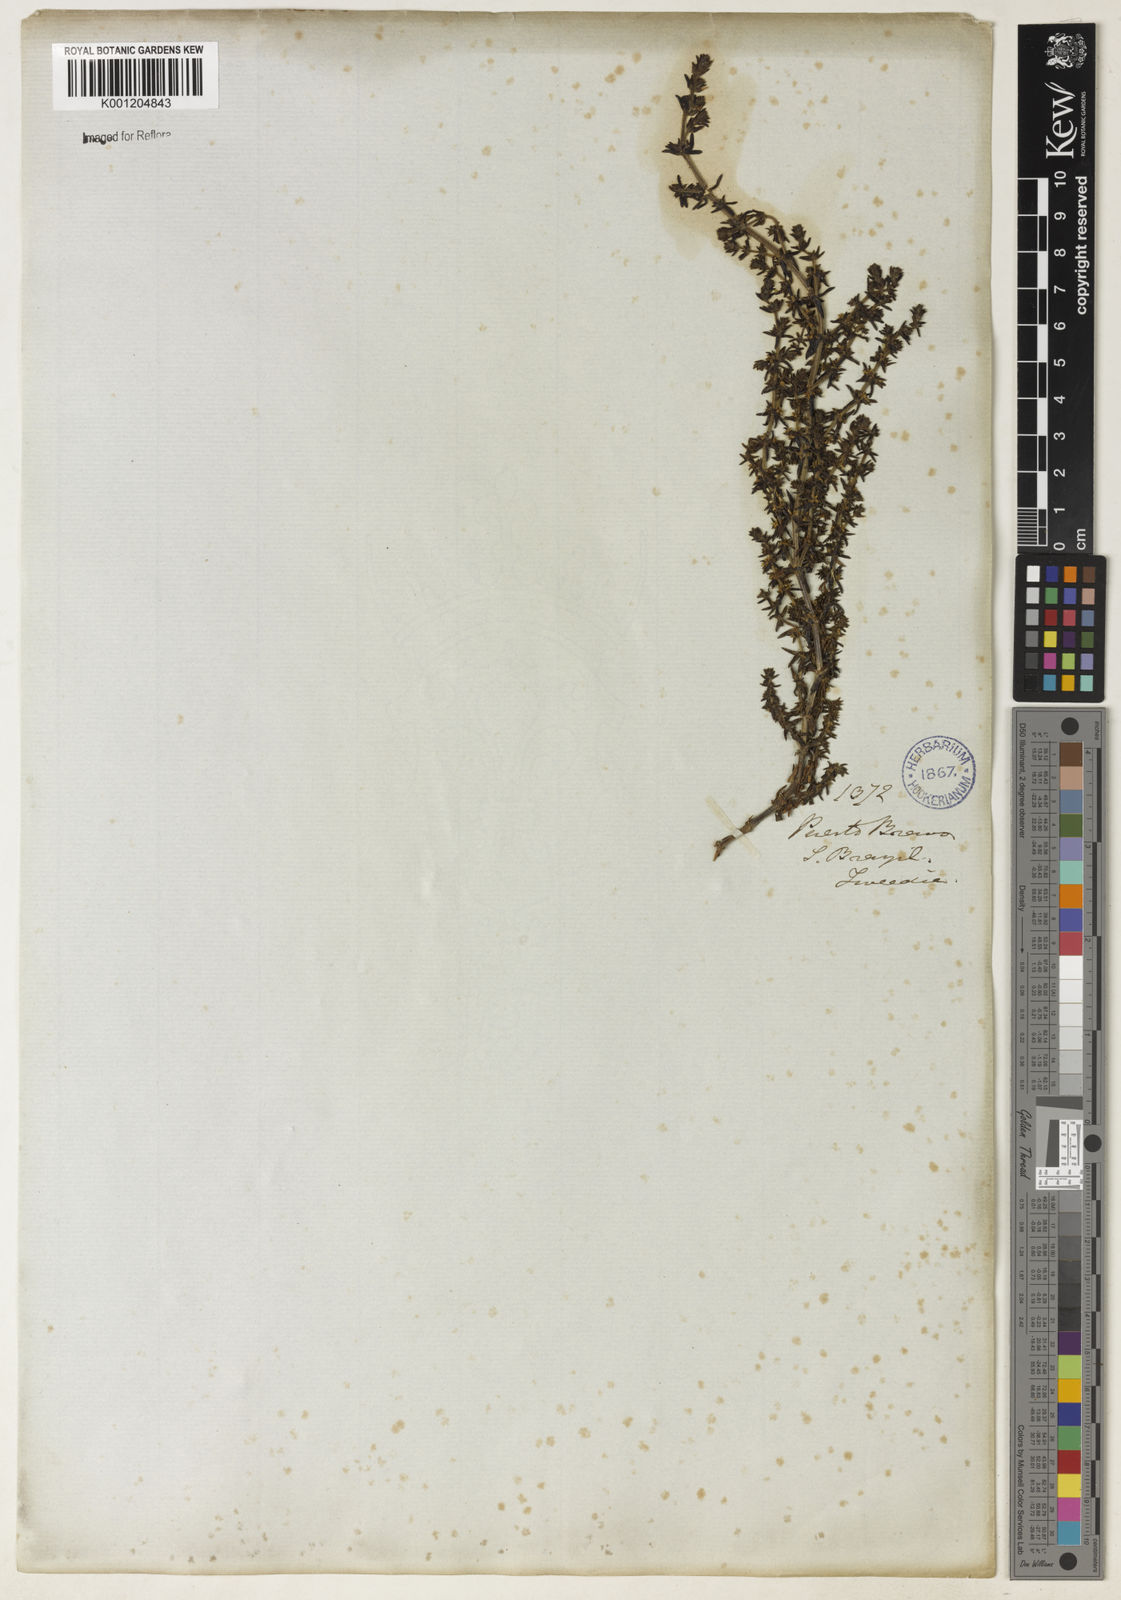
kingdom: Plantae
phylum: Tracheophyta
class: Magnoliopsida
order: Gentianales
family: Rubiaceae
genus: Galium
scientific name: Galium ericoides
